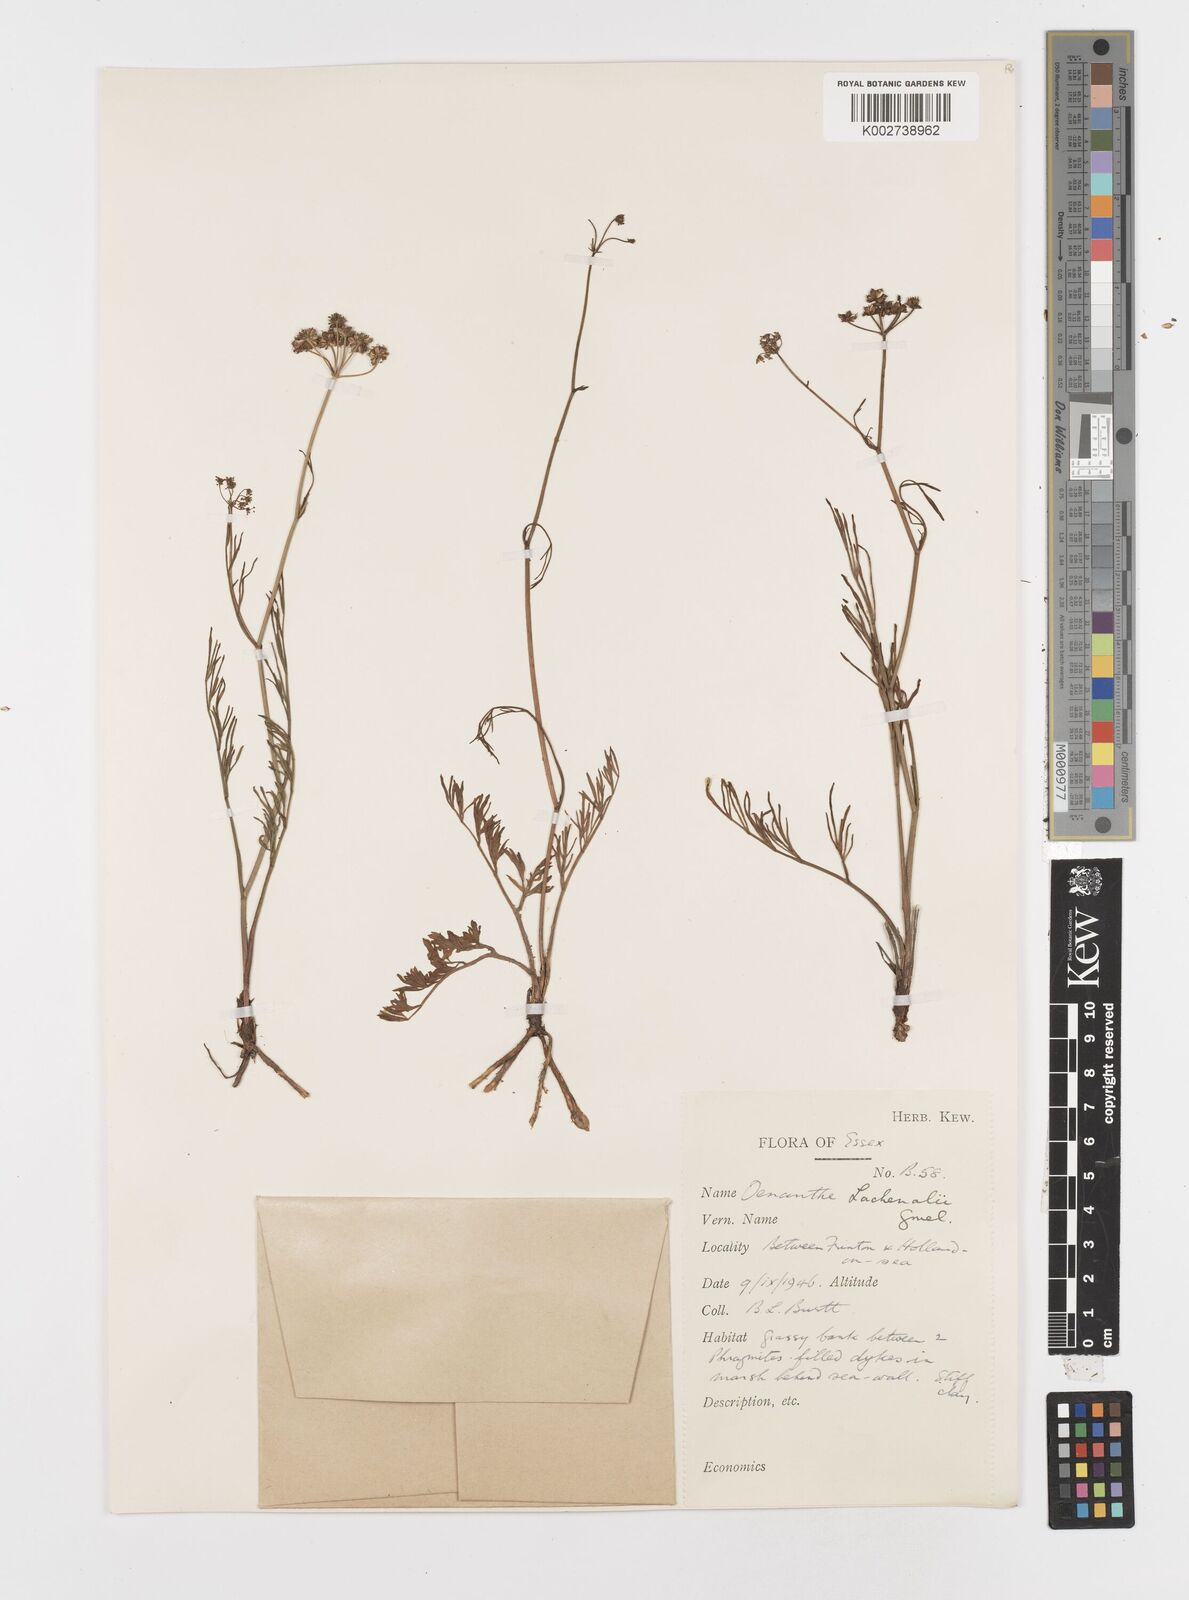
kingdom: Plantae
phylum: Tracheophyta
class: Magnoliopsida
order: Apiales
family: Apiaceae
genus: Oenanthe
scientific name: Oenanthe lachenalii
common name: Parsley water-dropwort
